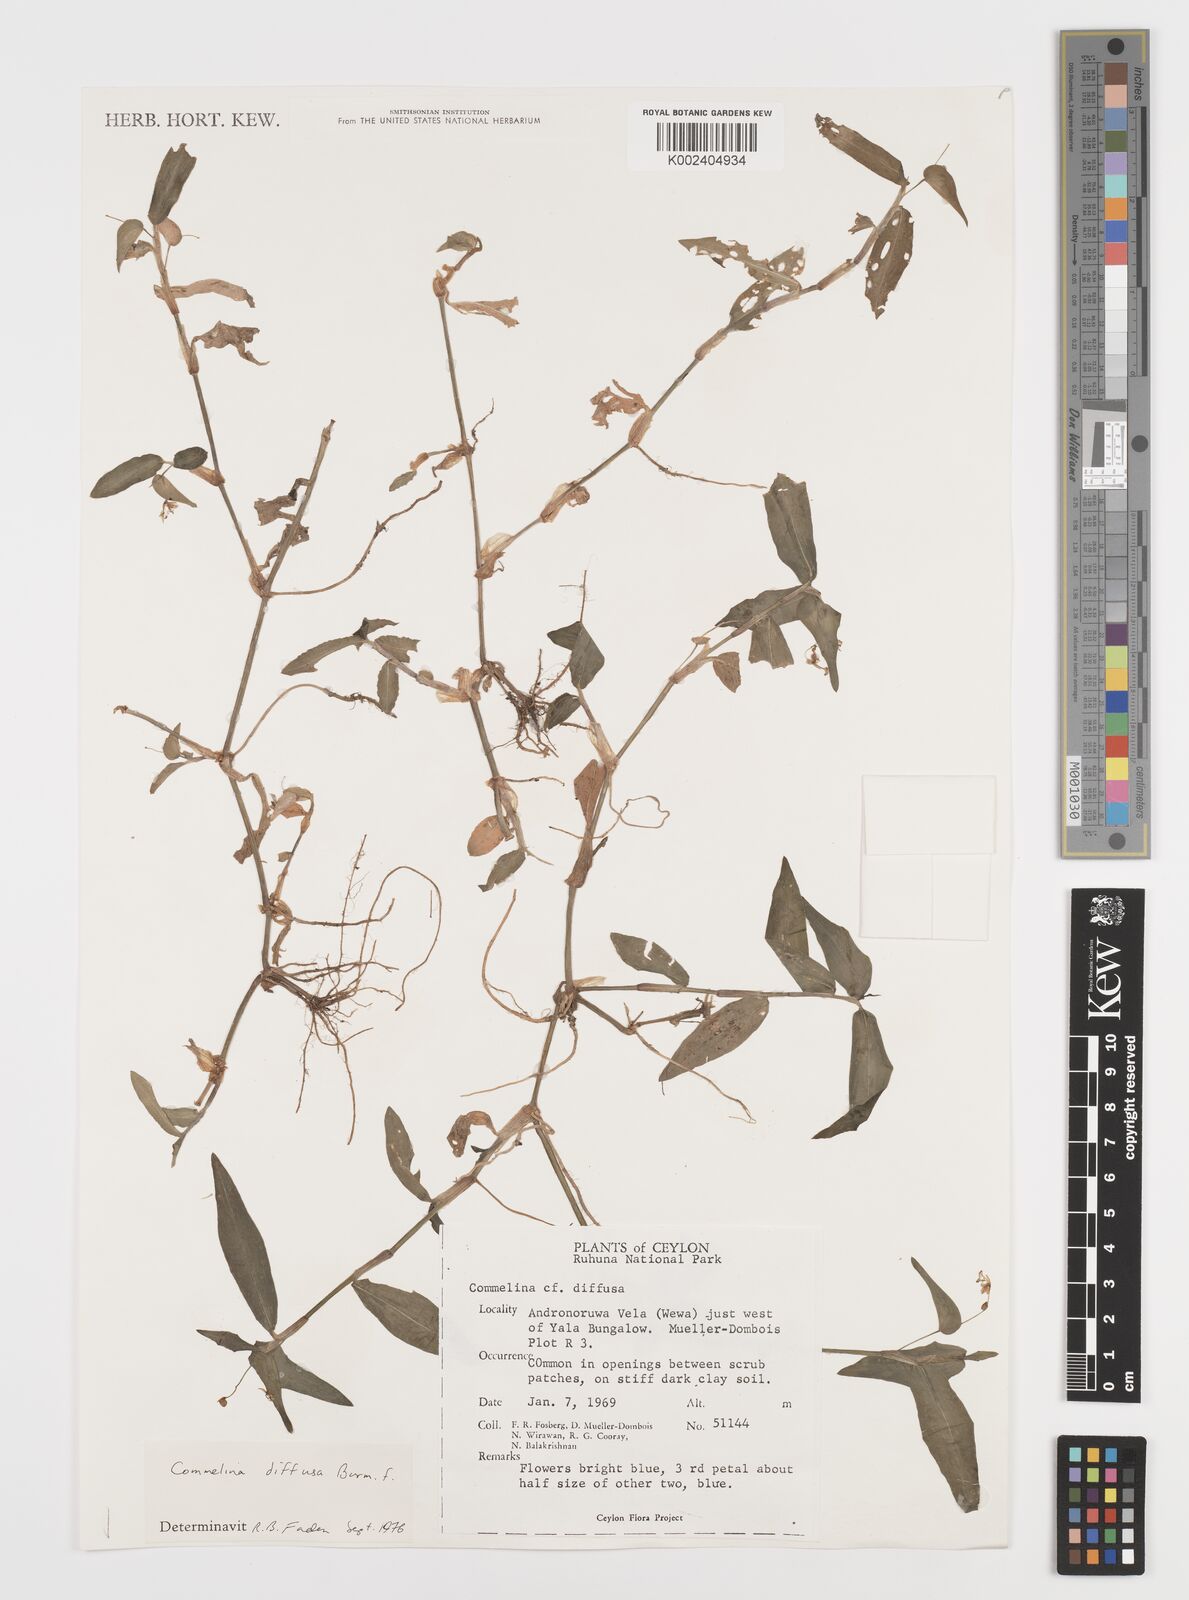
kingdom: Plantae
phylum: Tracheophyta
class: Liliopsida
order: Commelinales
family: Commelinaceae
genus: Murdannia
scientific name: Murdannia nudiflora
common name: Nakedstem dewflower
